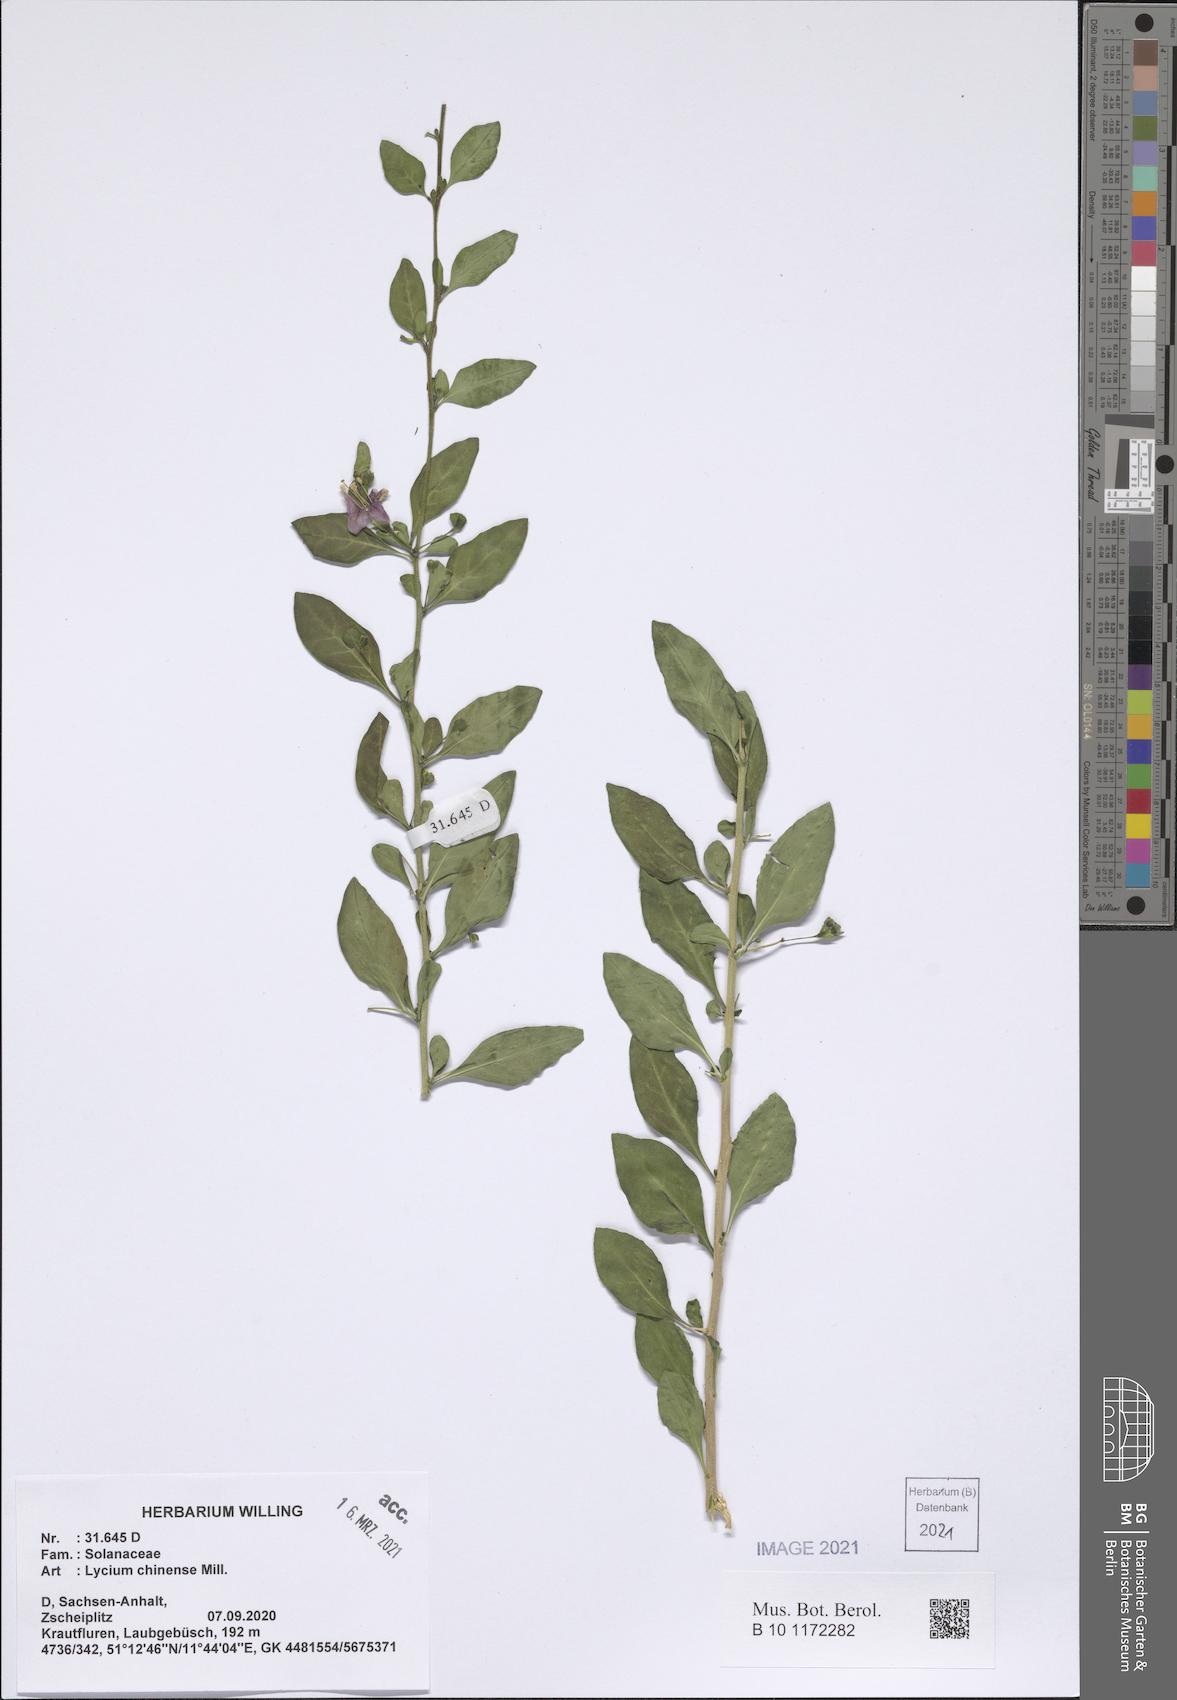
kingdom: Plantae
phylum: Tracheophyta
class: Magnoliopsida
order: Solanales
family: Solanaceae
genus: Lycium
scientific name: Lycium chinense
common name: Chinese teaplant
